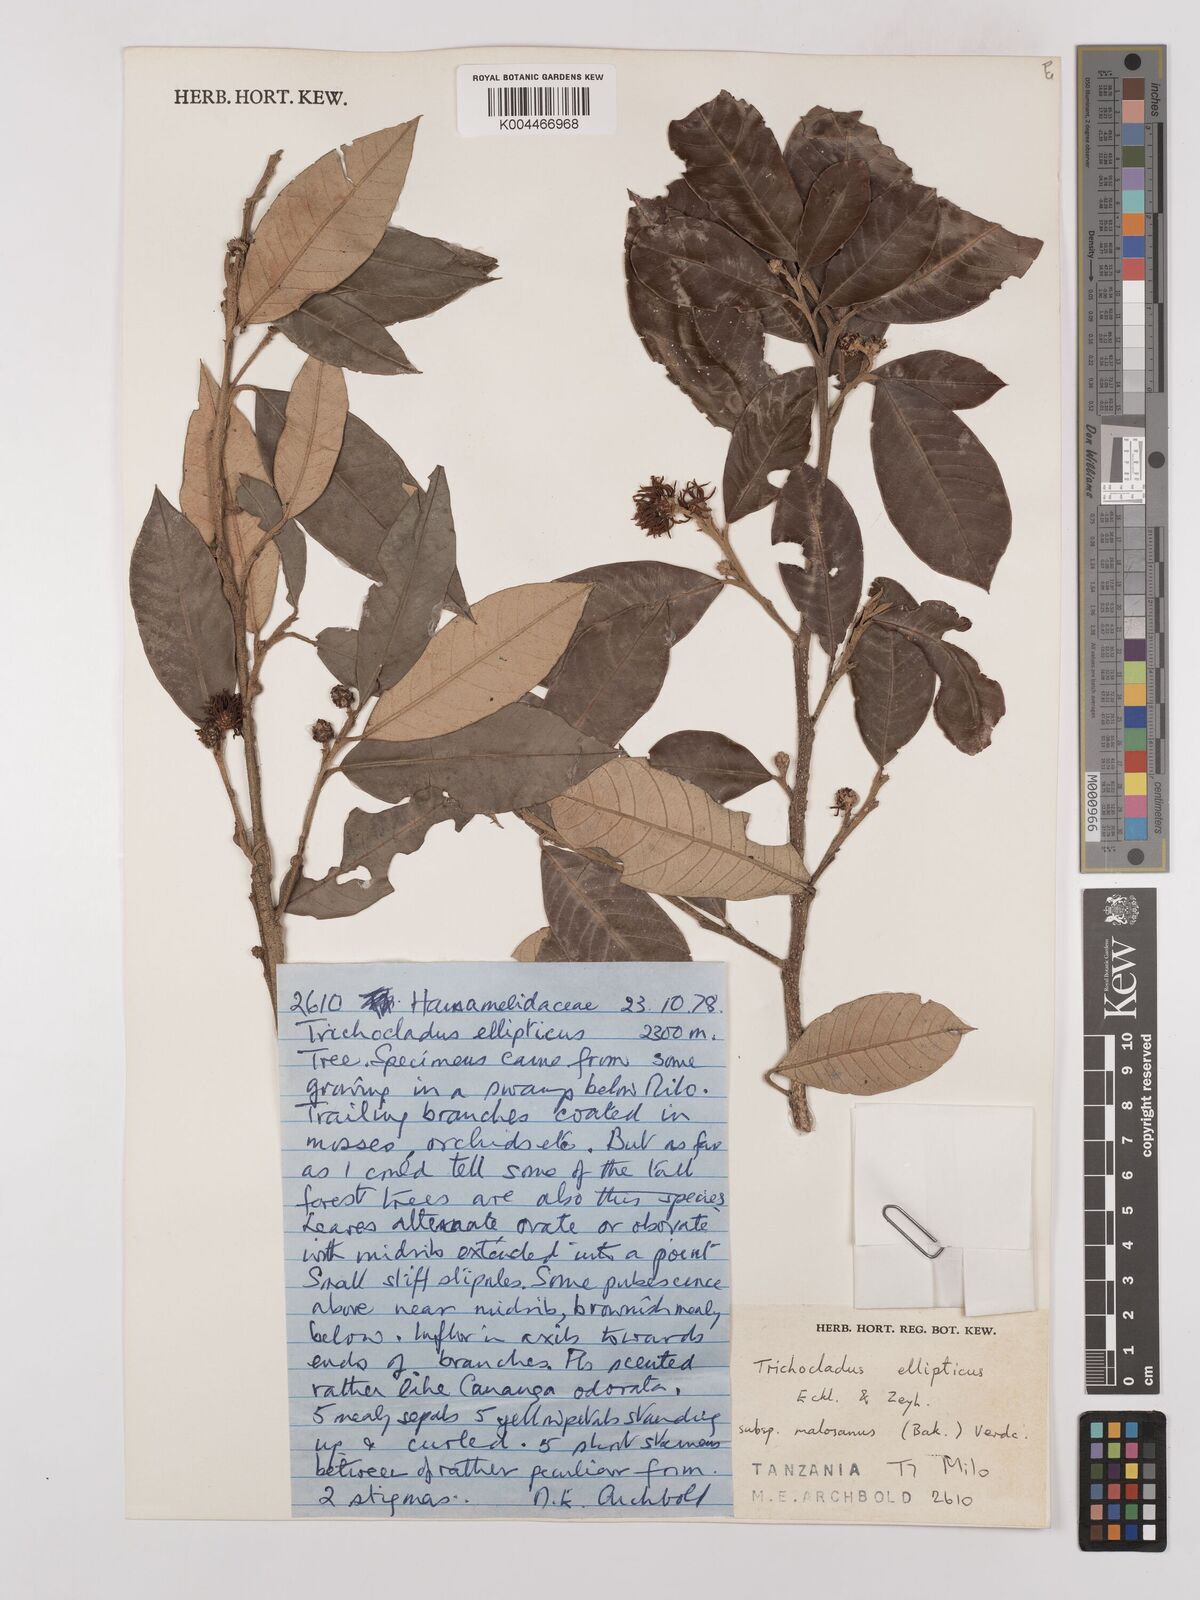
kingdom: Plantae
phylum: Tracheophyta
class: Magnoliopsida
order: Saxifragales
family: Hamamelidaceae
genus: Trichocladus
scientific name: Trichocladus ellipticus
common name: White witch-hazel
